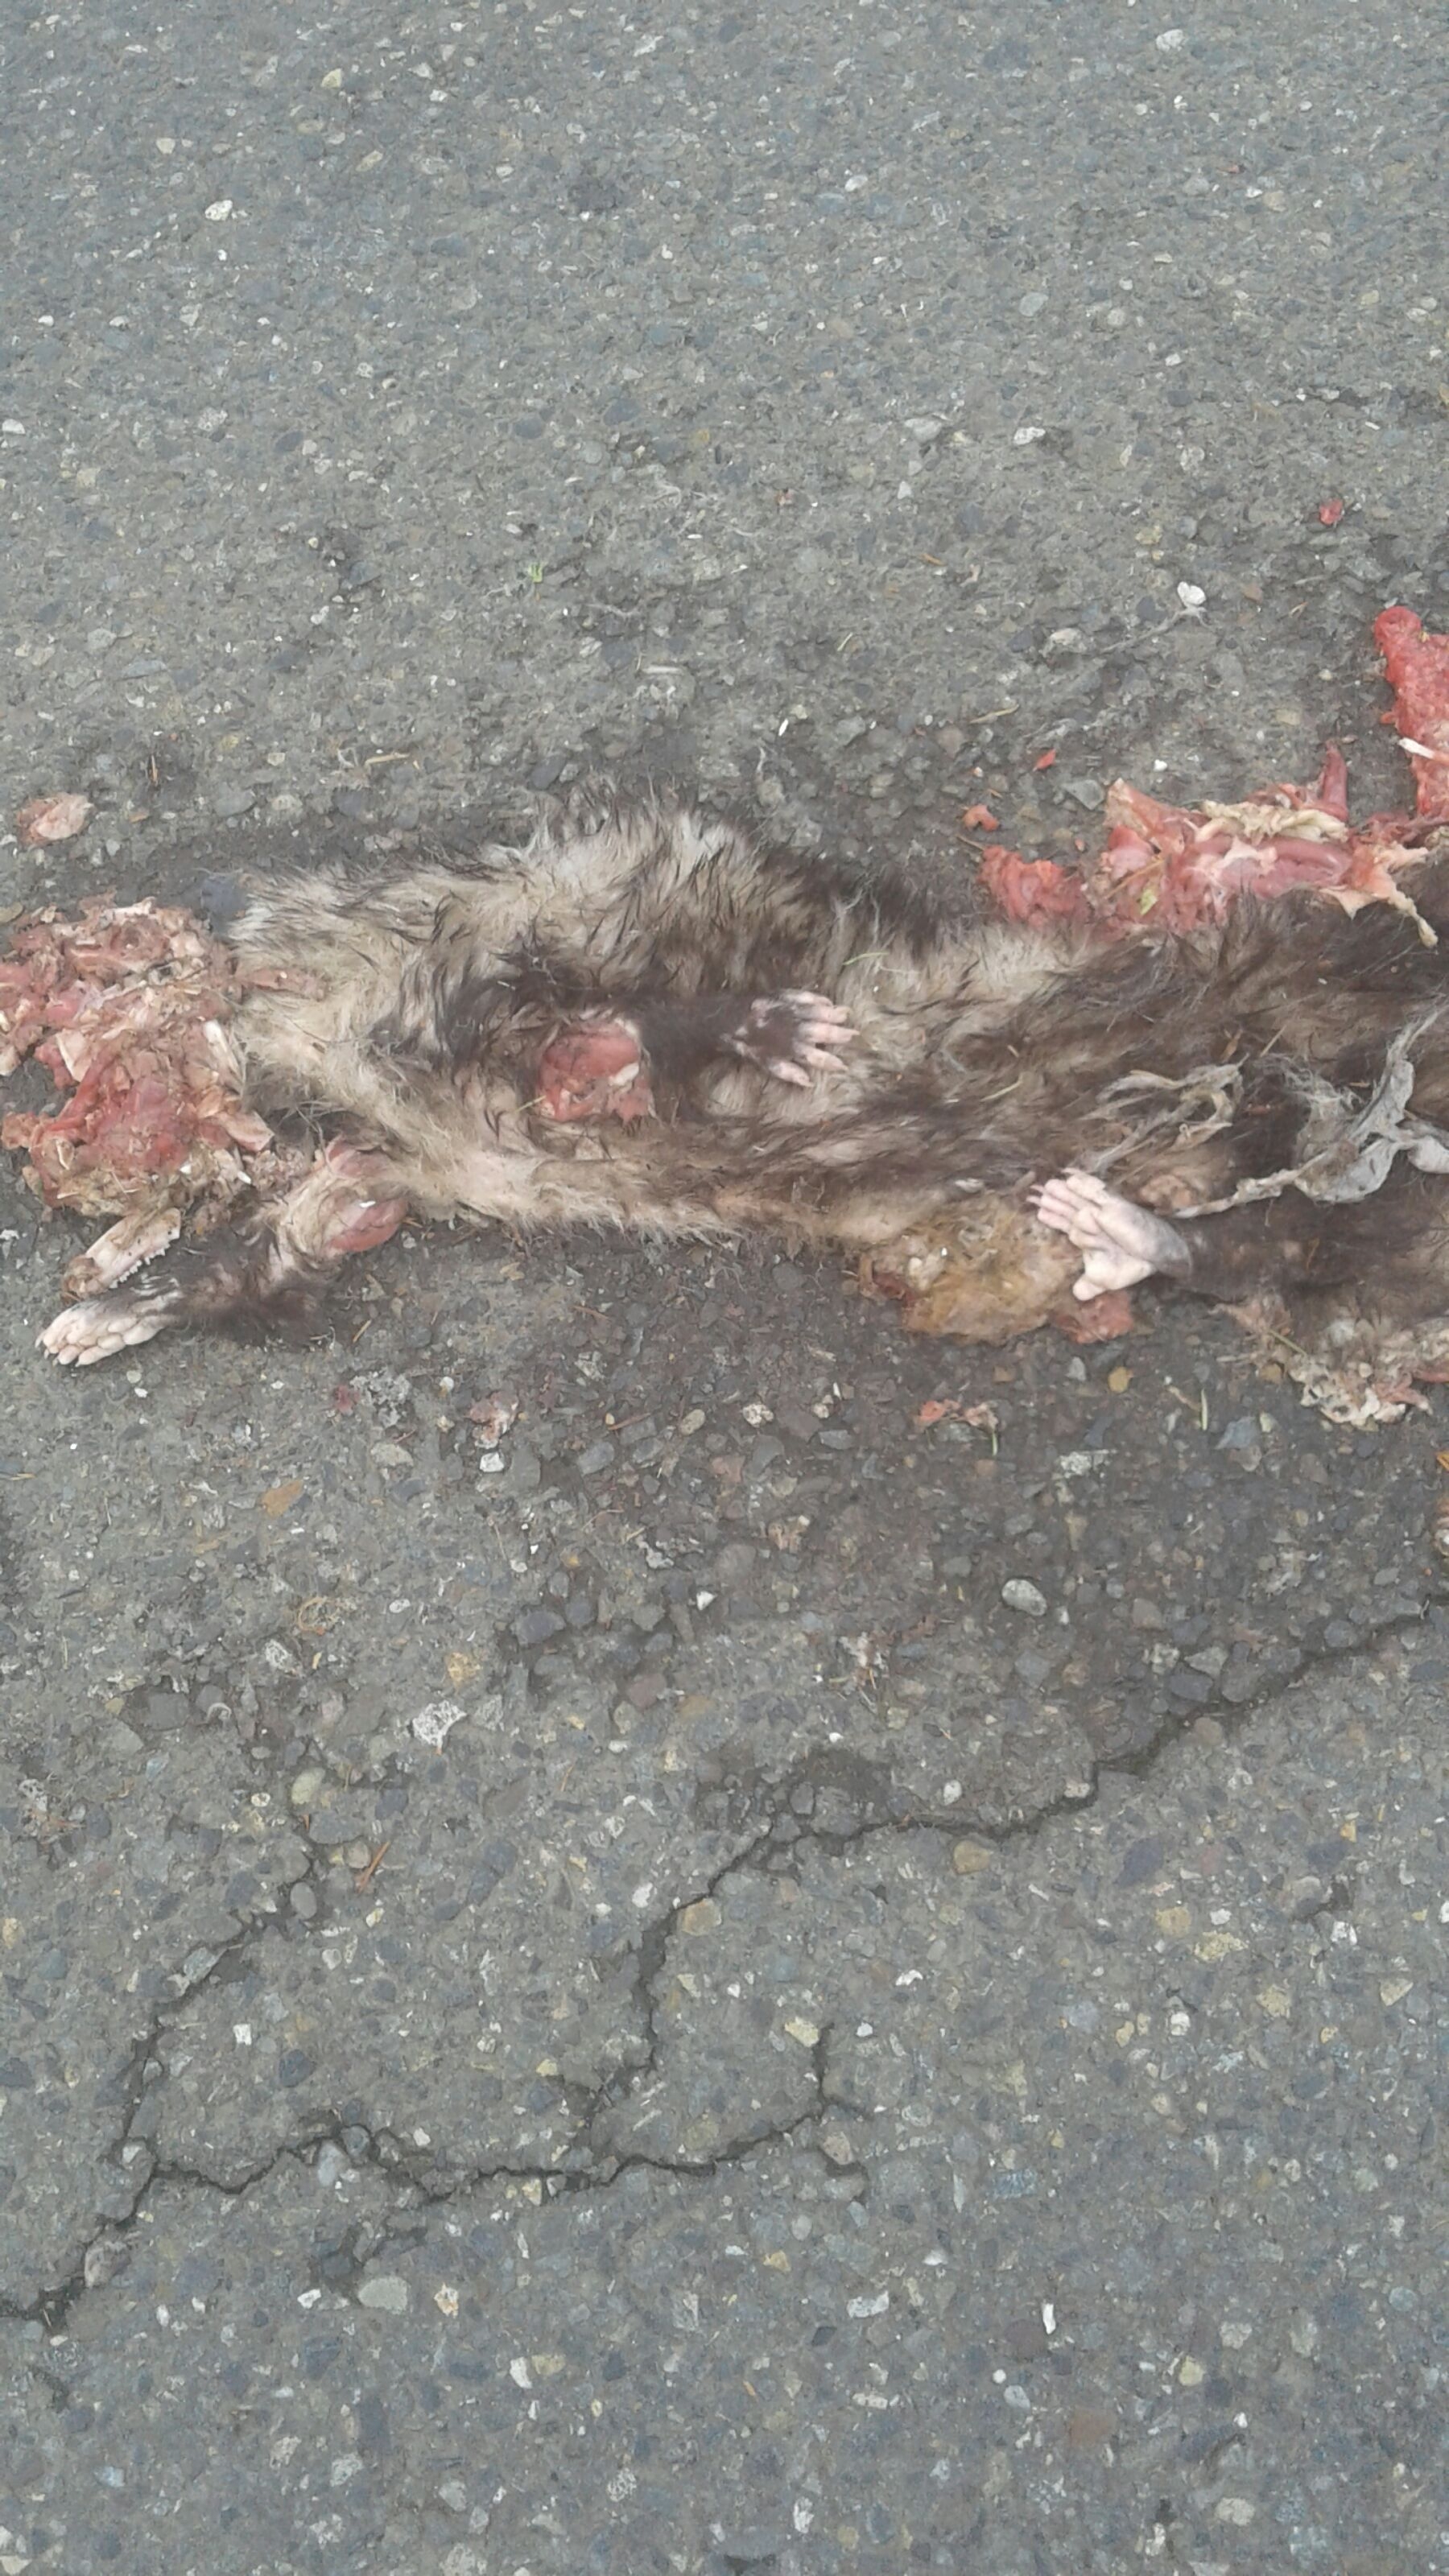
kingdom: Animalia
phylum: Chordata
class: Mammalia
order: Didelphimorphia
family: Didelphidae
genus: Didelphis
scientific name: Didelphis virginiana
